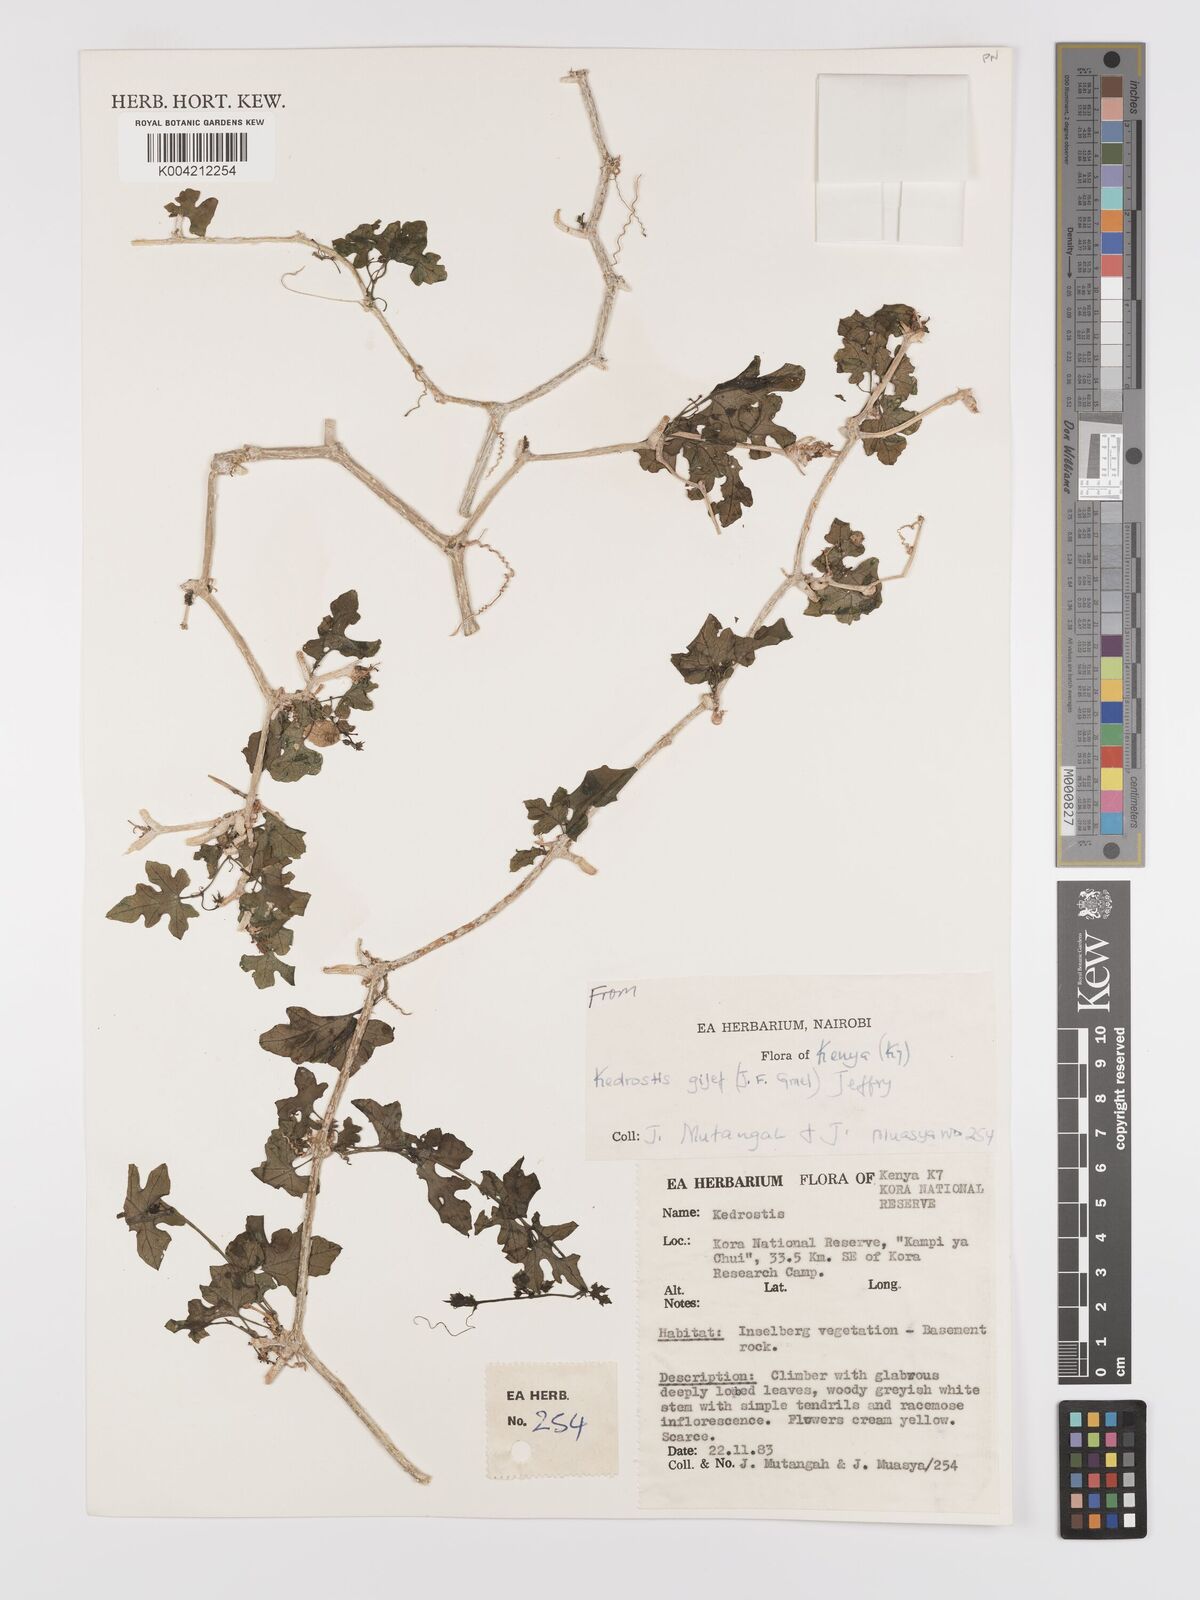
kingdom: Plantae
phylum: Tracheophyta
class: Magnoliopsida
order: Cucurbitales
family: Cucurbitaceae
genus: Kedrostis
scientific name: Kedrostis gijef
